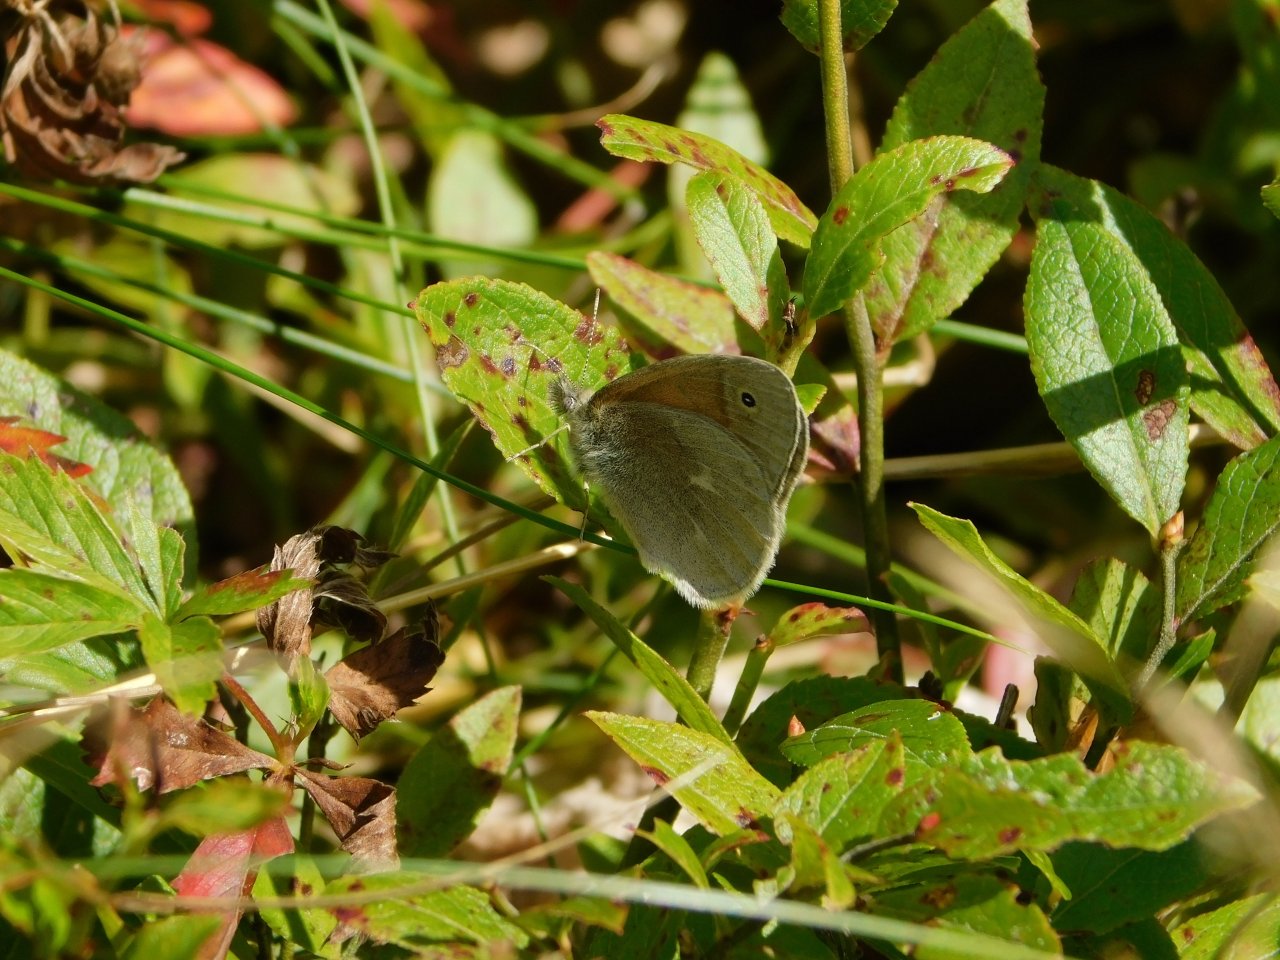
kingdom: Animalia
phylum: Arthropoda
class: Insecta
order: Lepidoptera
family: Nymphalidae
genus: Coenonympha
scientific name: Coenonympha tullia
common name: Large Heath
